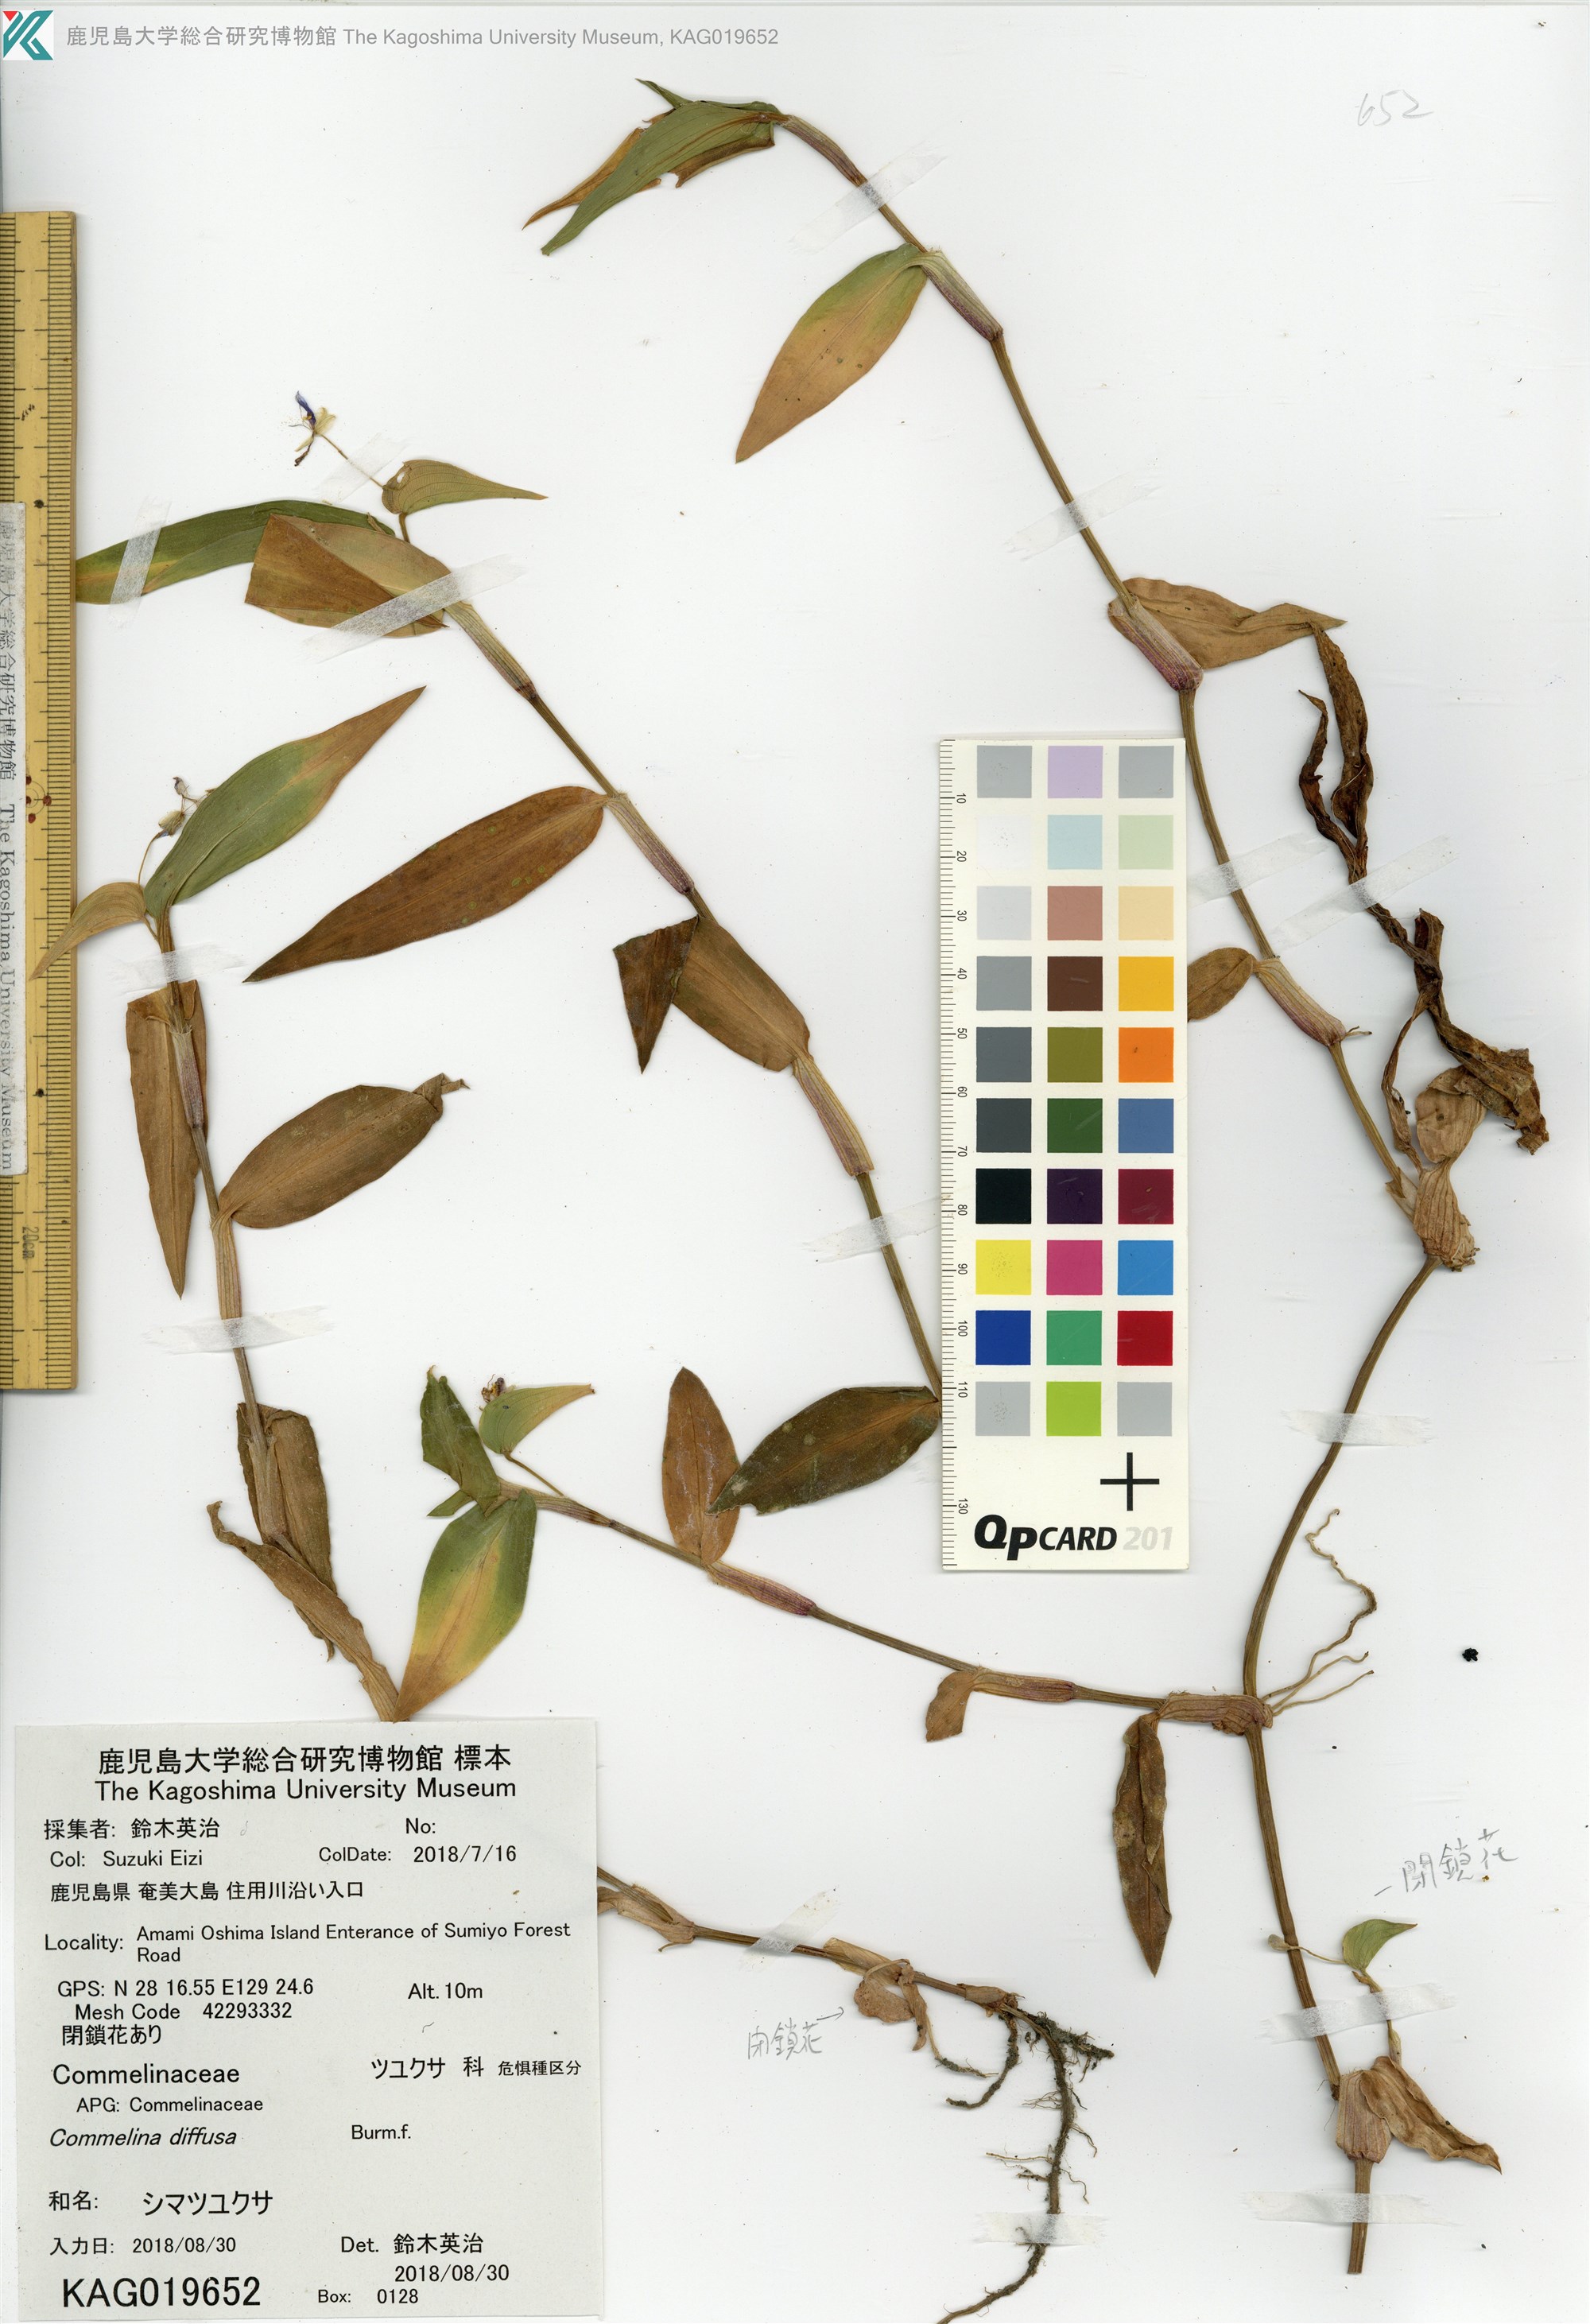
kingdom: Plantae
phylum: Tracheophyta
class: Liliopsida
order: Commelinales
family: Commelinaceae
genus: Commelina
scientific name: Commelina diffusa
